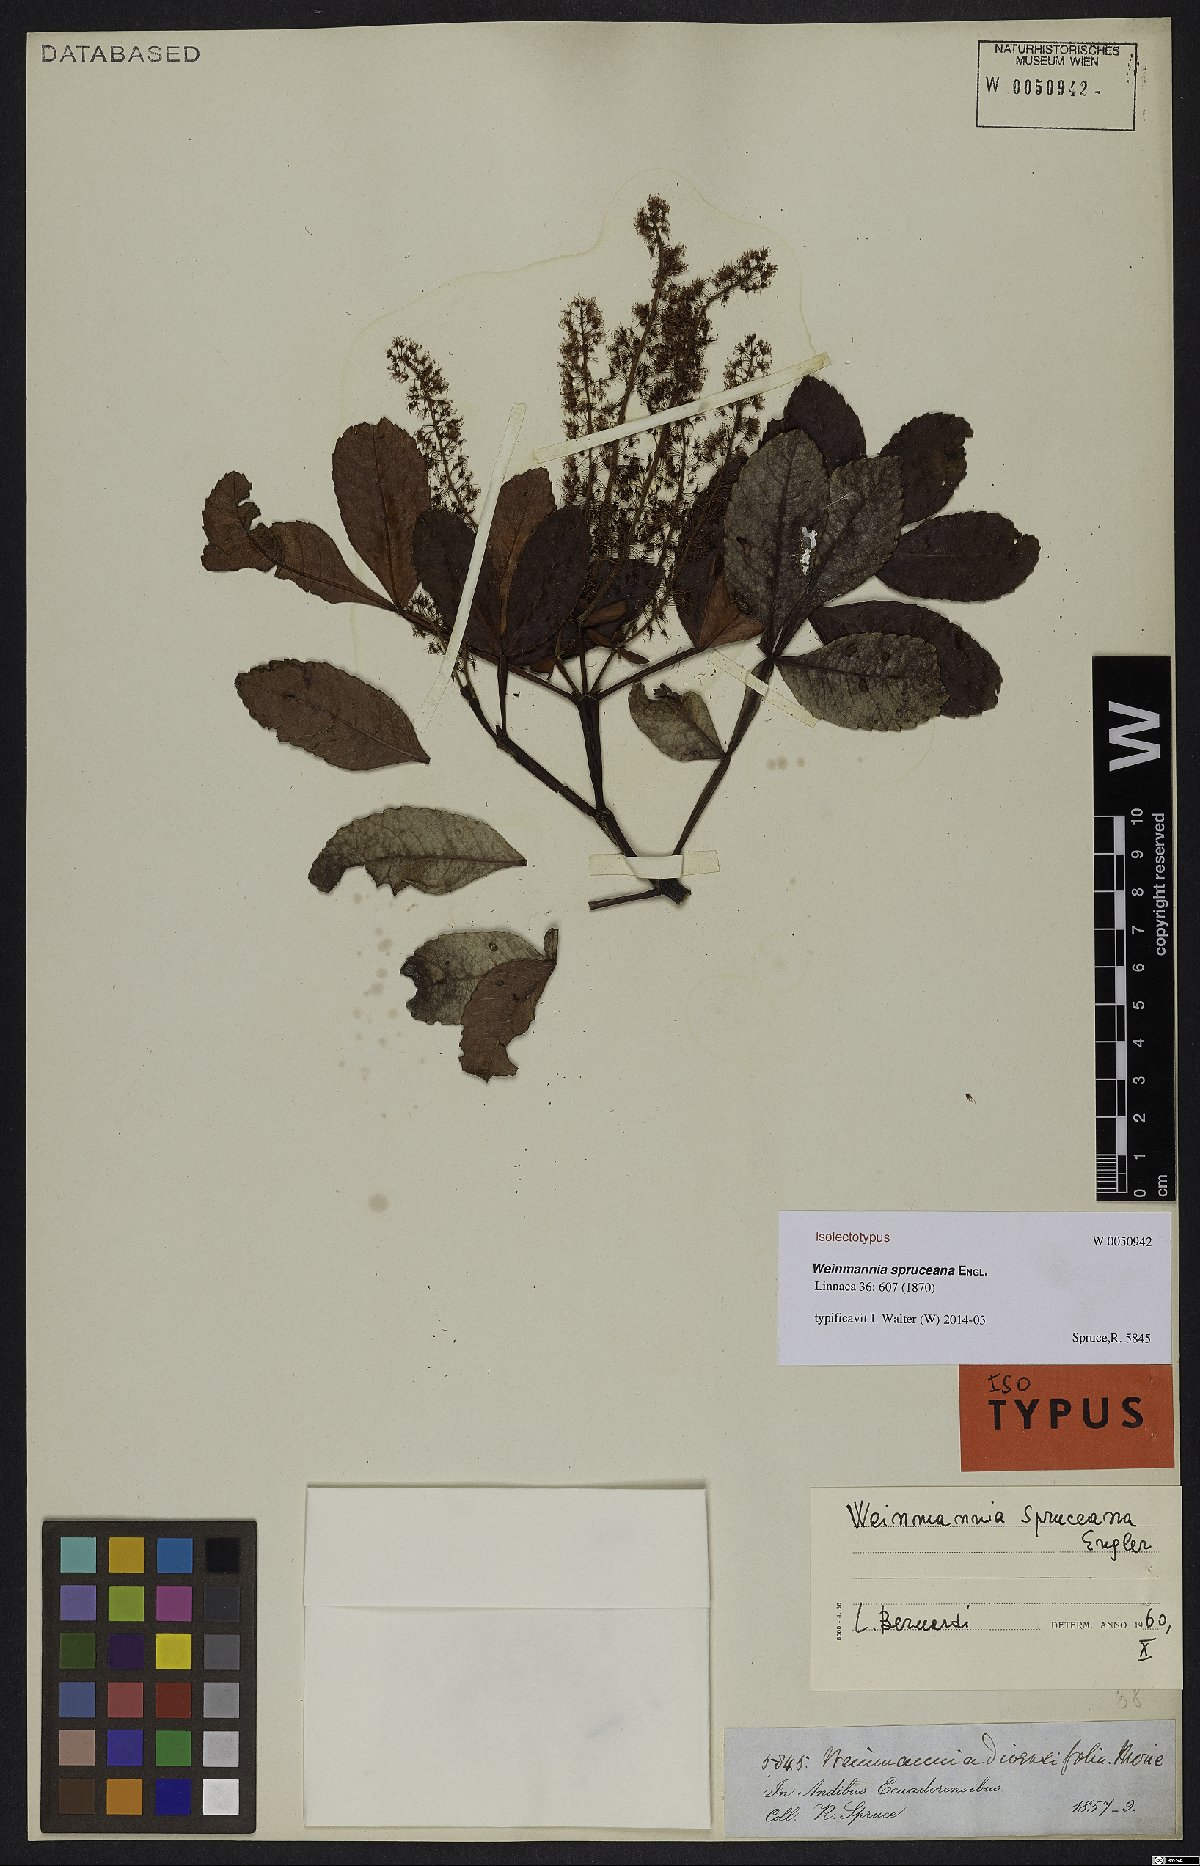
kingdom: Plantae
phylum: Tracheophyta
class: Magnoliopsida
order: Oxalidales
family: Cunoniaceae
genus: Weinmannia
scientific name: Weinmannia spruceana
